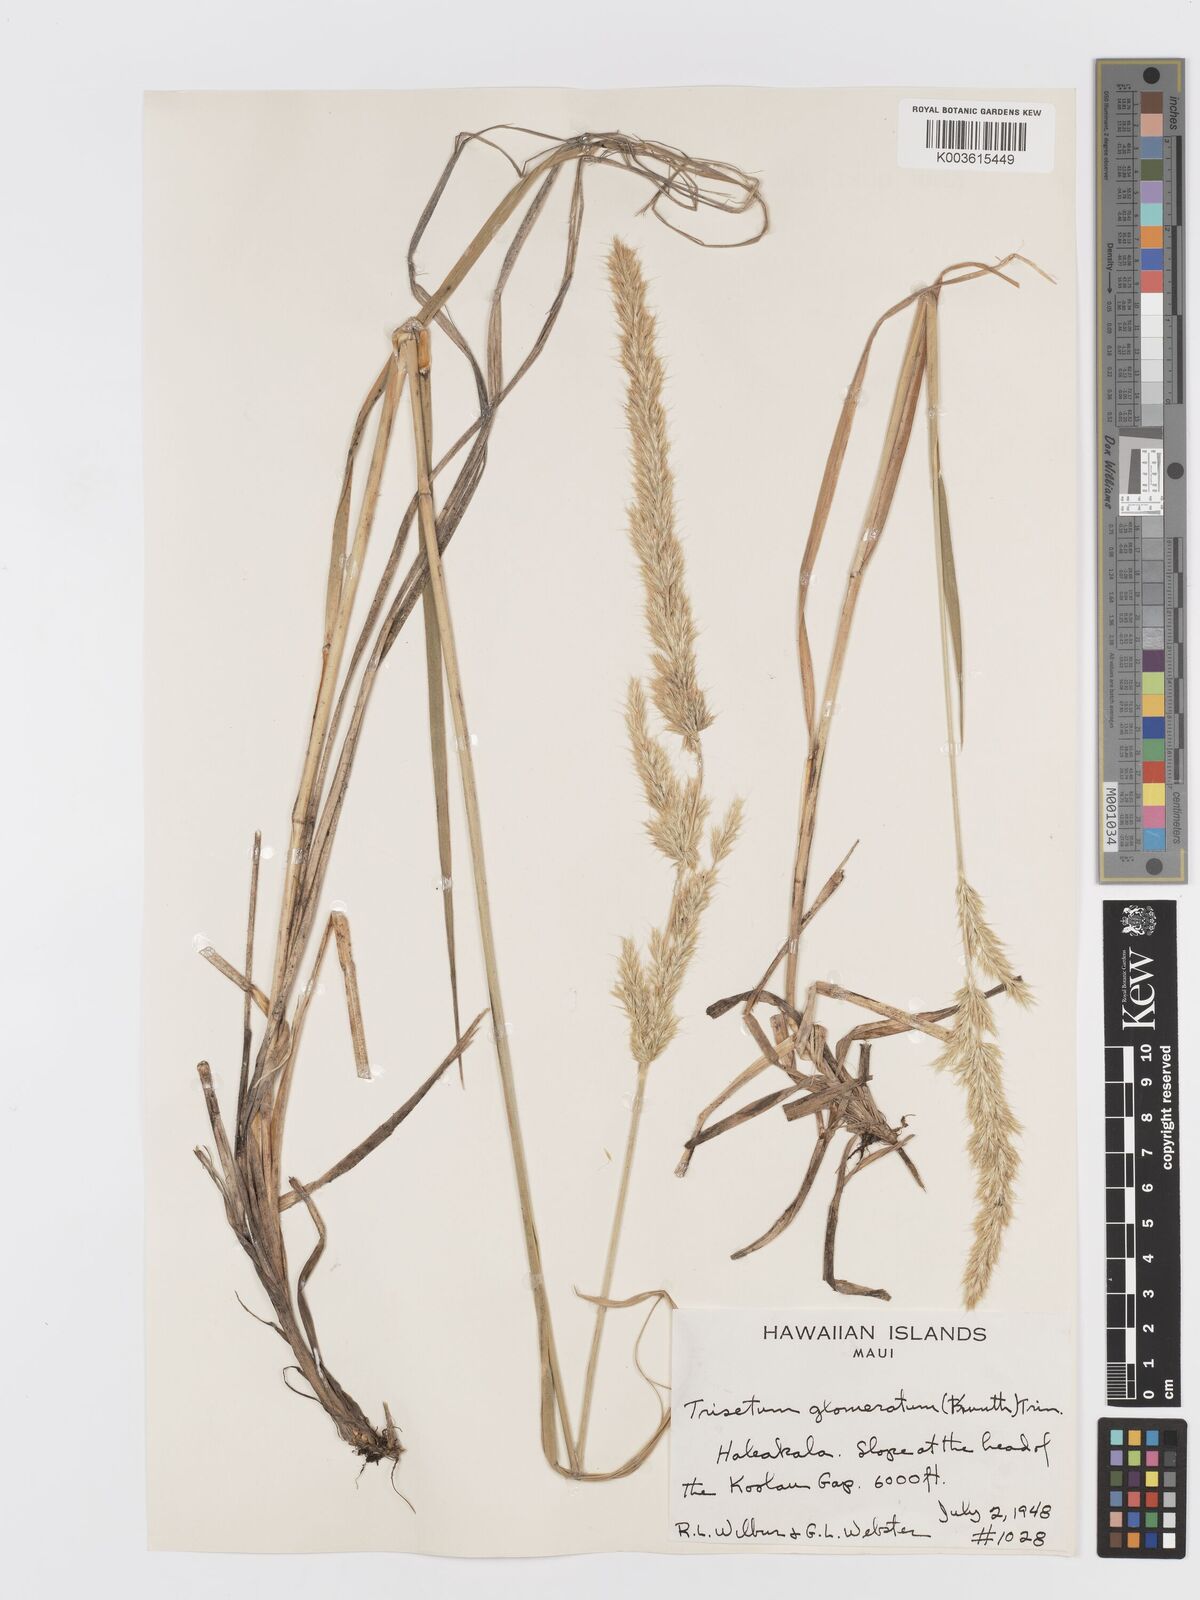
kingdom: Plantae
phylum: Tracheophyta
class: Liliopsida
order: Poales
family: Poaceae
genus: Trisetum
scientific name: Trisetum glomeratum
